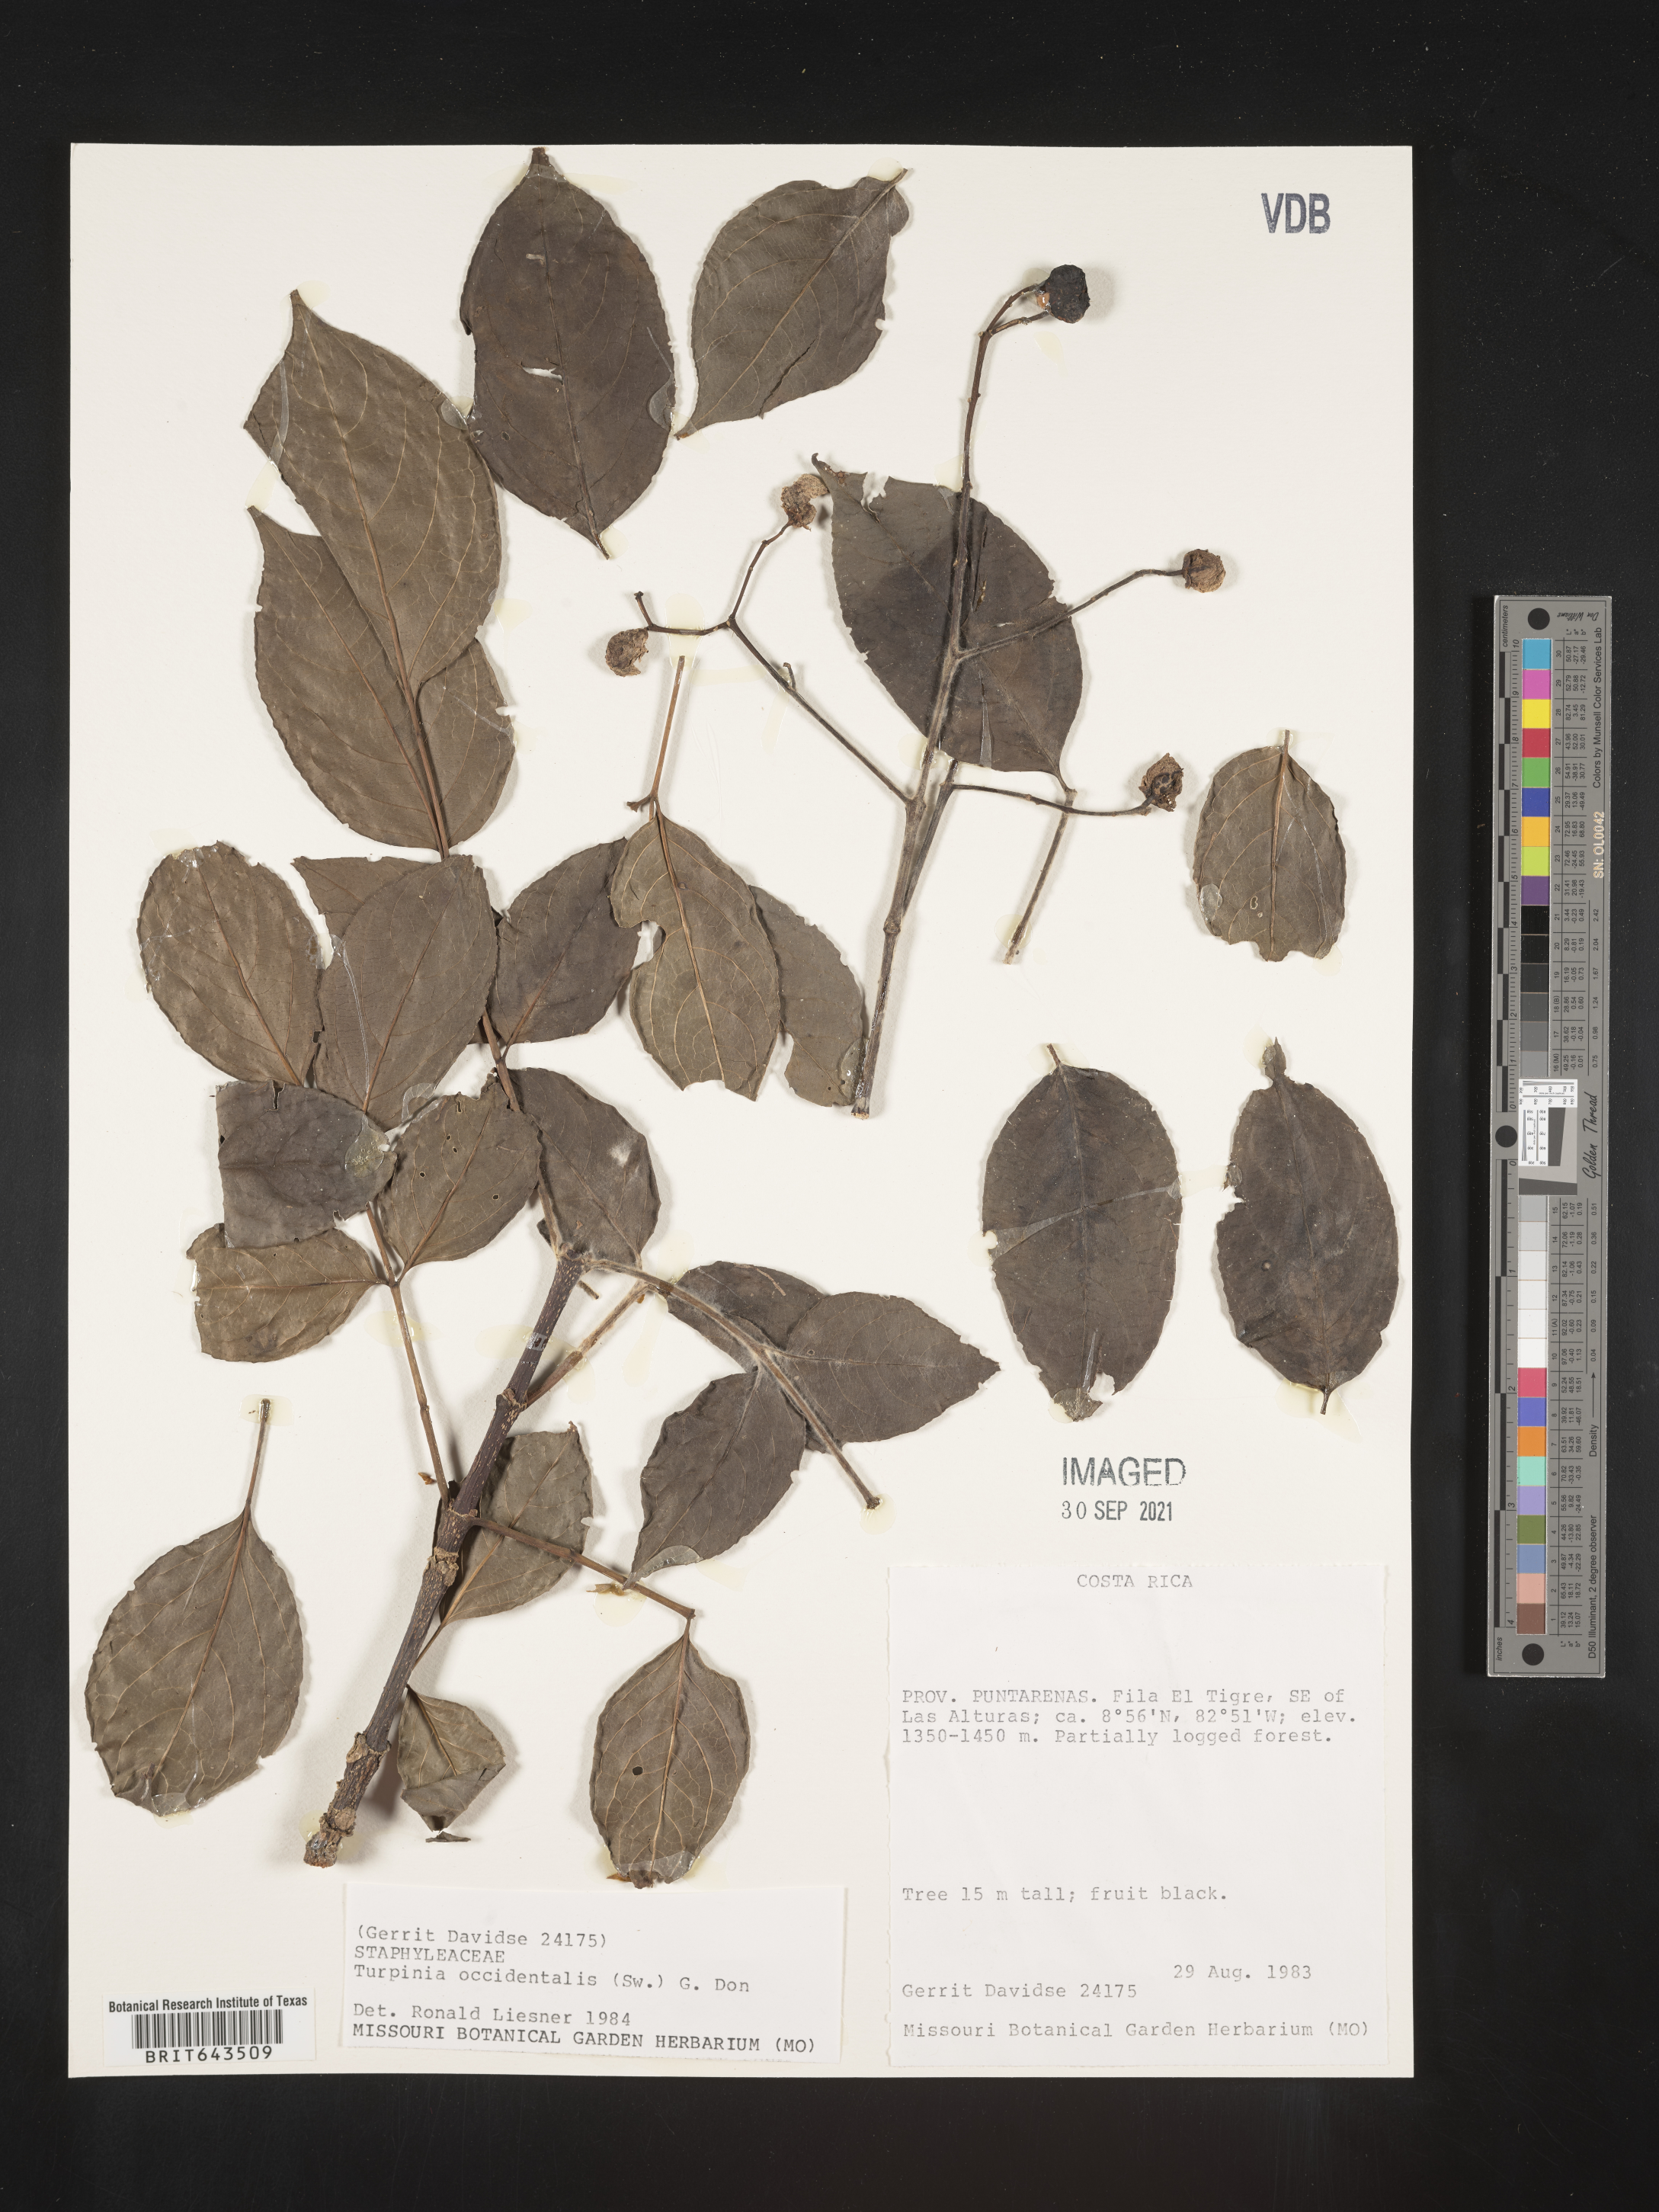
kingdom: Plantae
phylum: Tracheophyta
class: Magnoliopsida
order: Crossosomatales
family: Staphyleaceae
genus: Turpinia
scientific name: Turpinia
